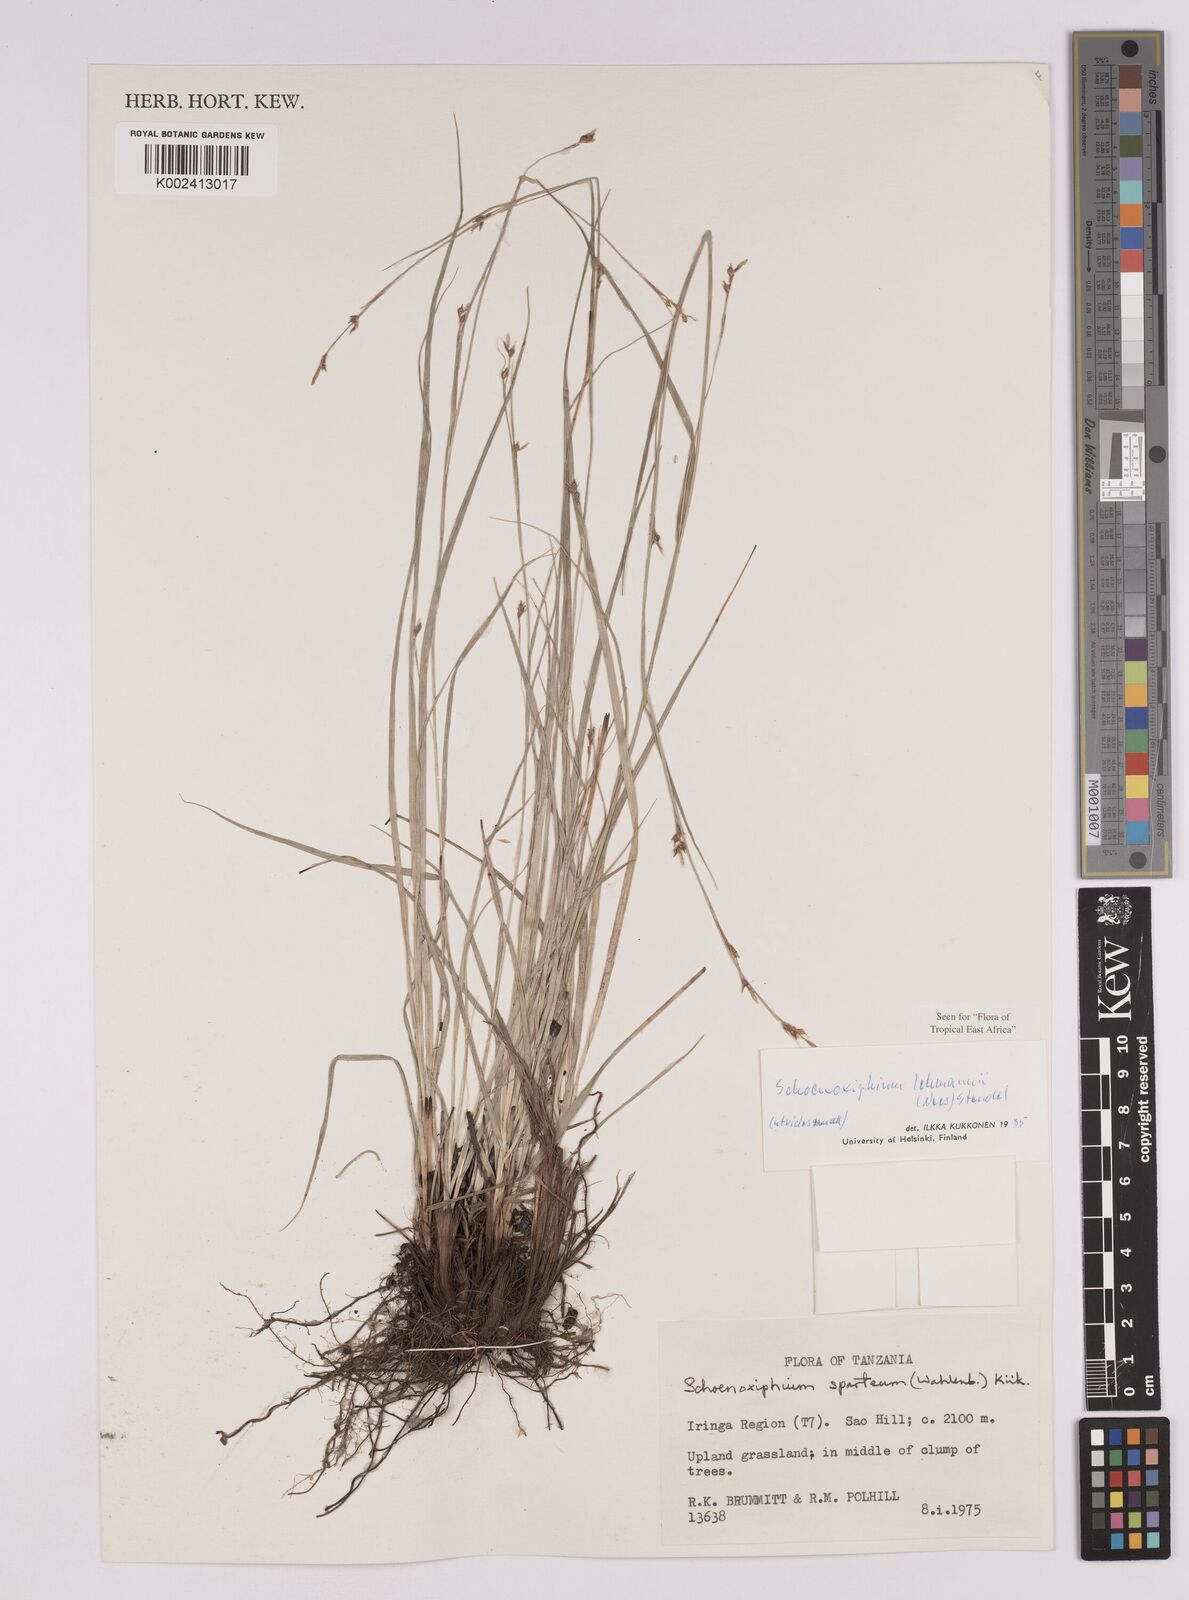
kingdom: Plantae
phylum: Tracheophyta
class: Liliopsida
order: Poales
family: Cyperaceae
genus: Carex
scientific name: Carex uhligii
